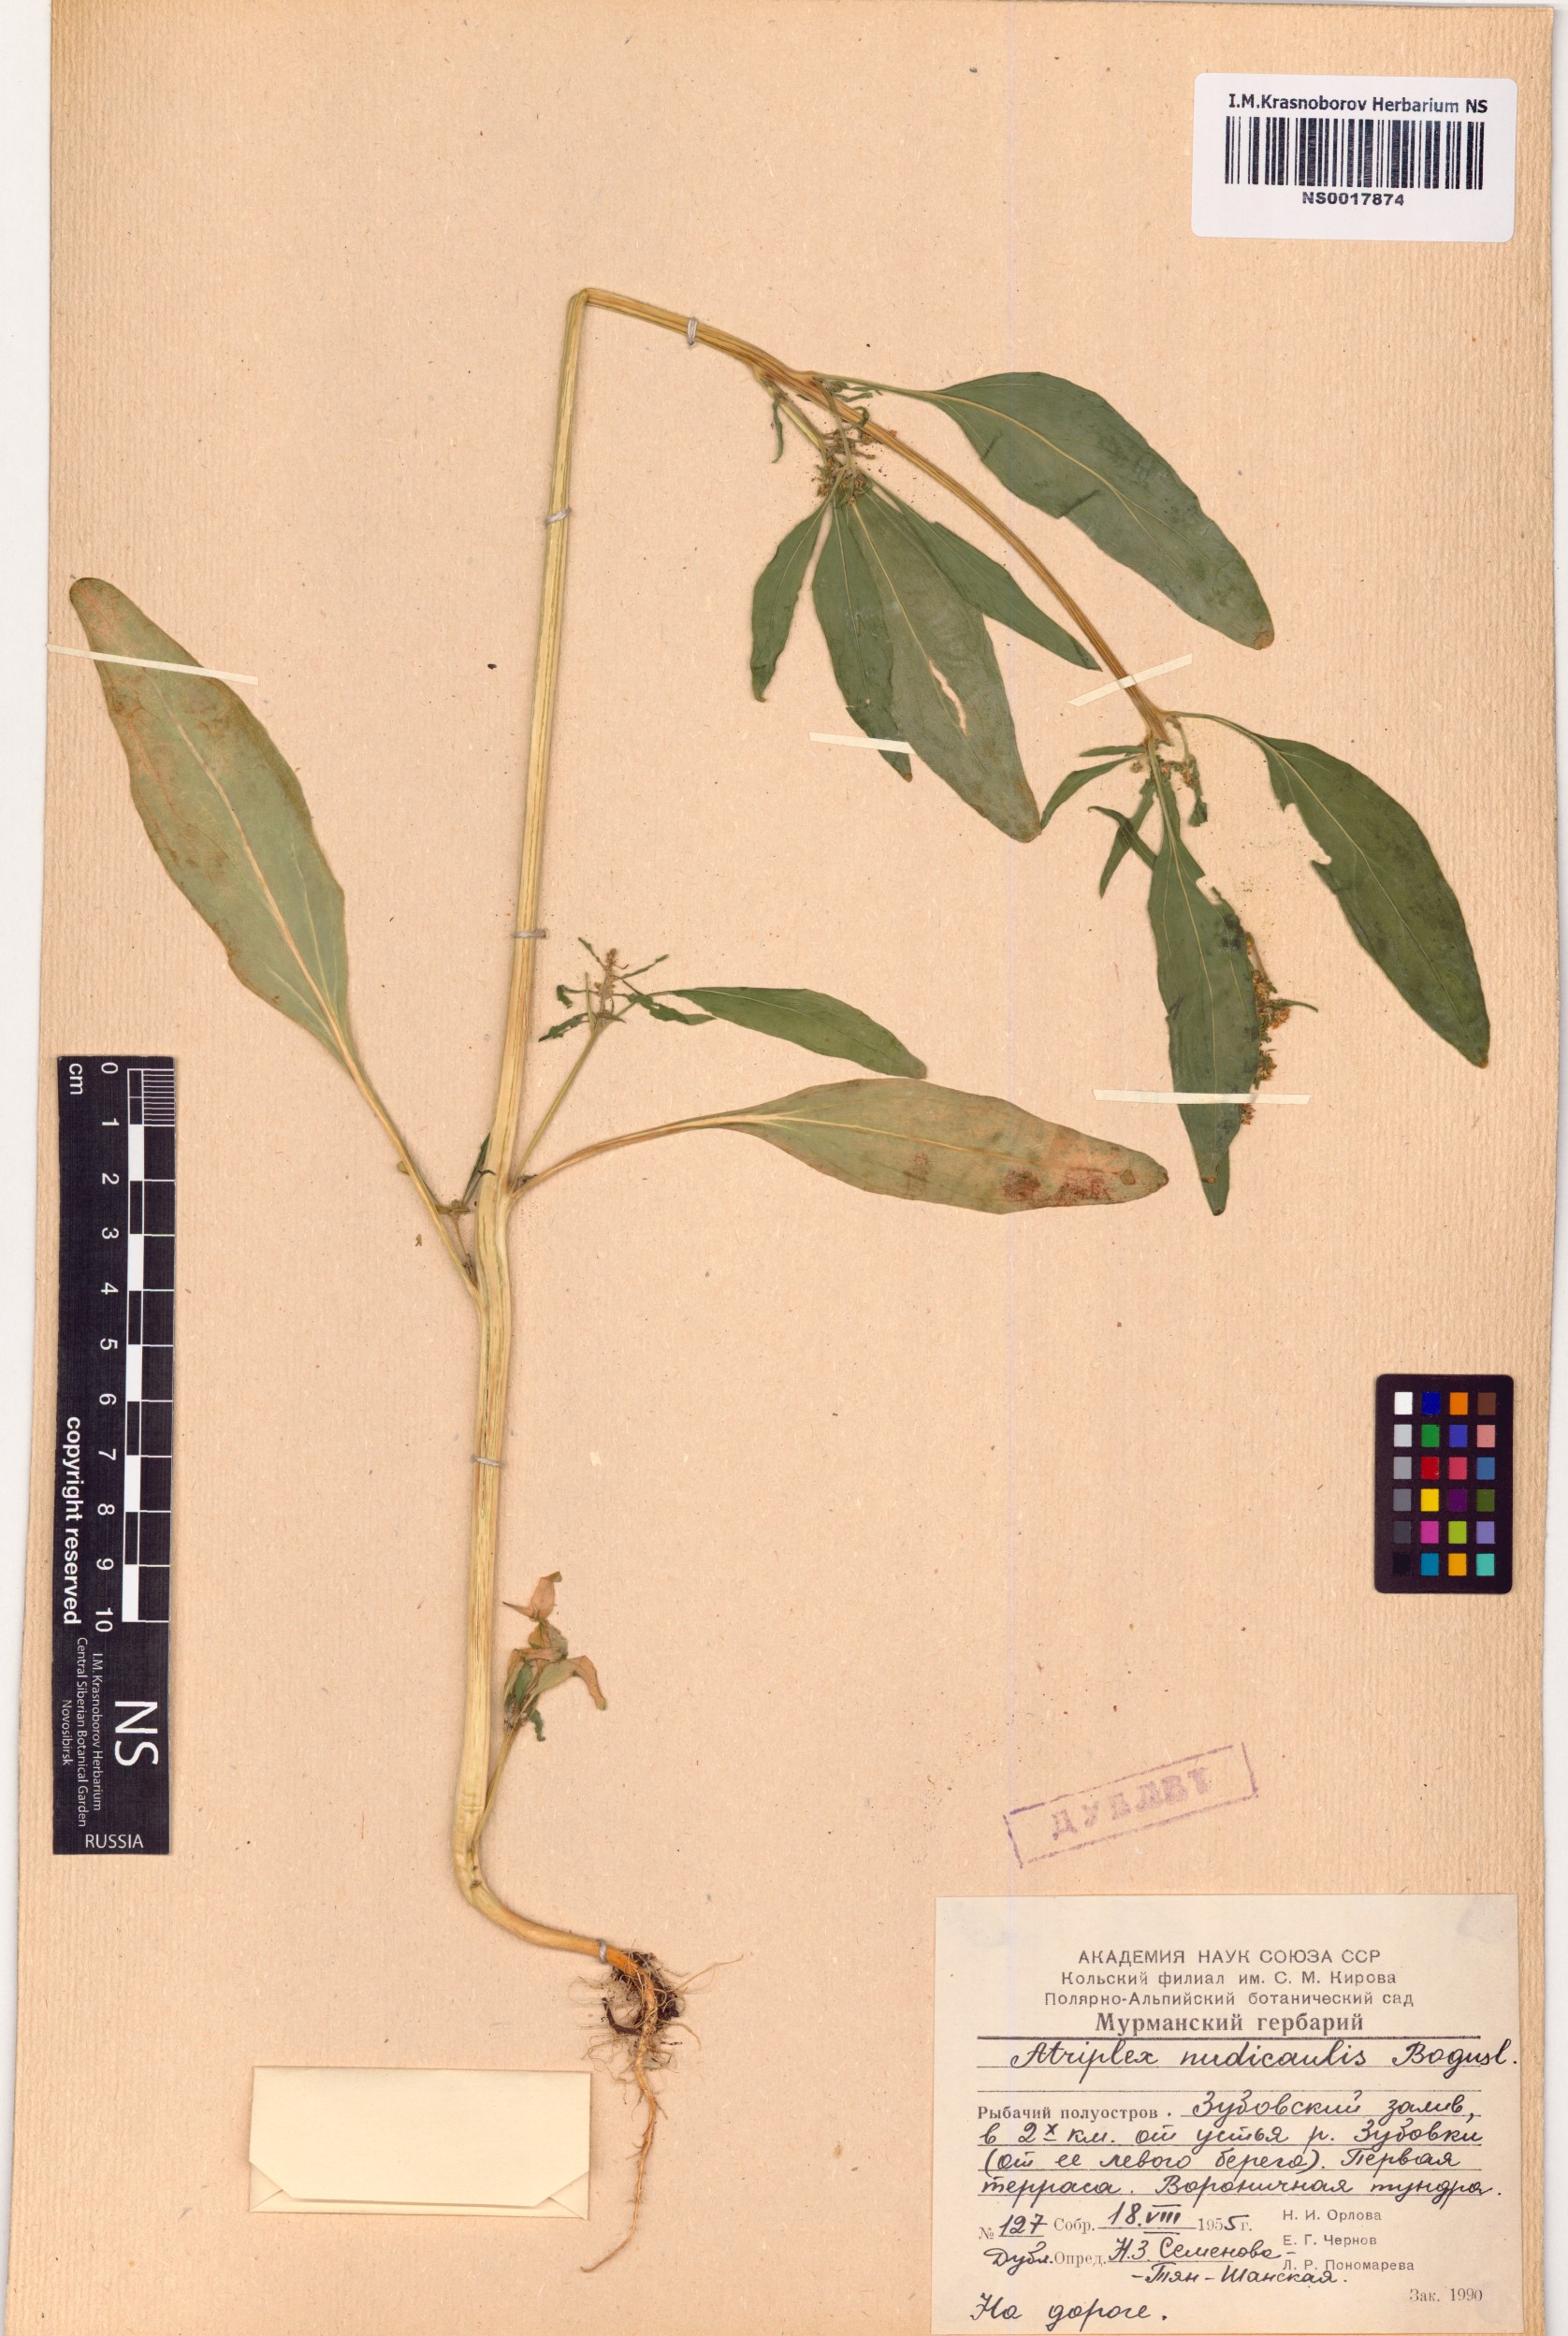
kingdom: Plantae
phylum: Tracheophyta
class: Magnoliopsida
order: Caryophyllales
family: Amaranthaceae
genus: Atriplex
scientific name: Atriplex nudicaulis
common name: Baltic orache
